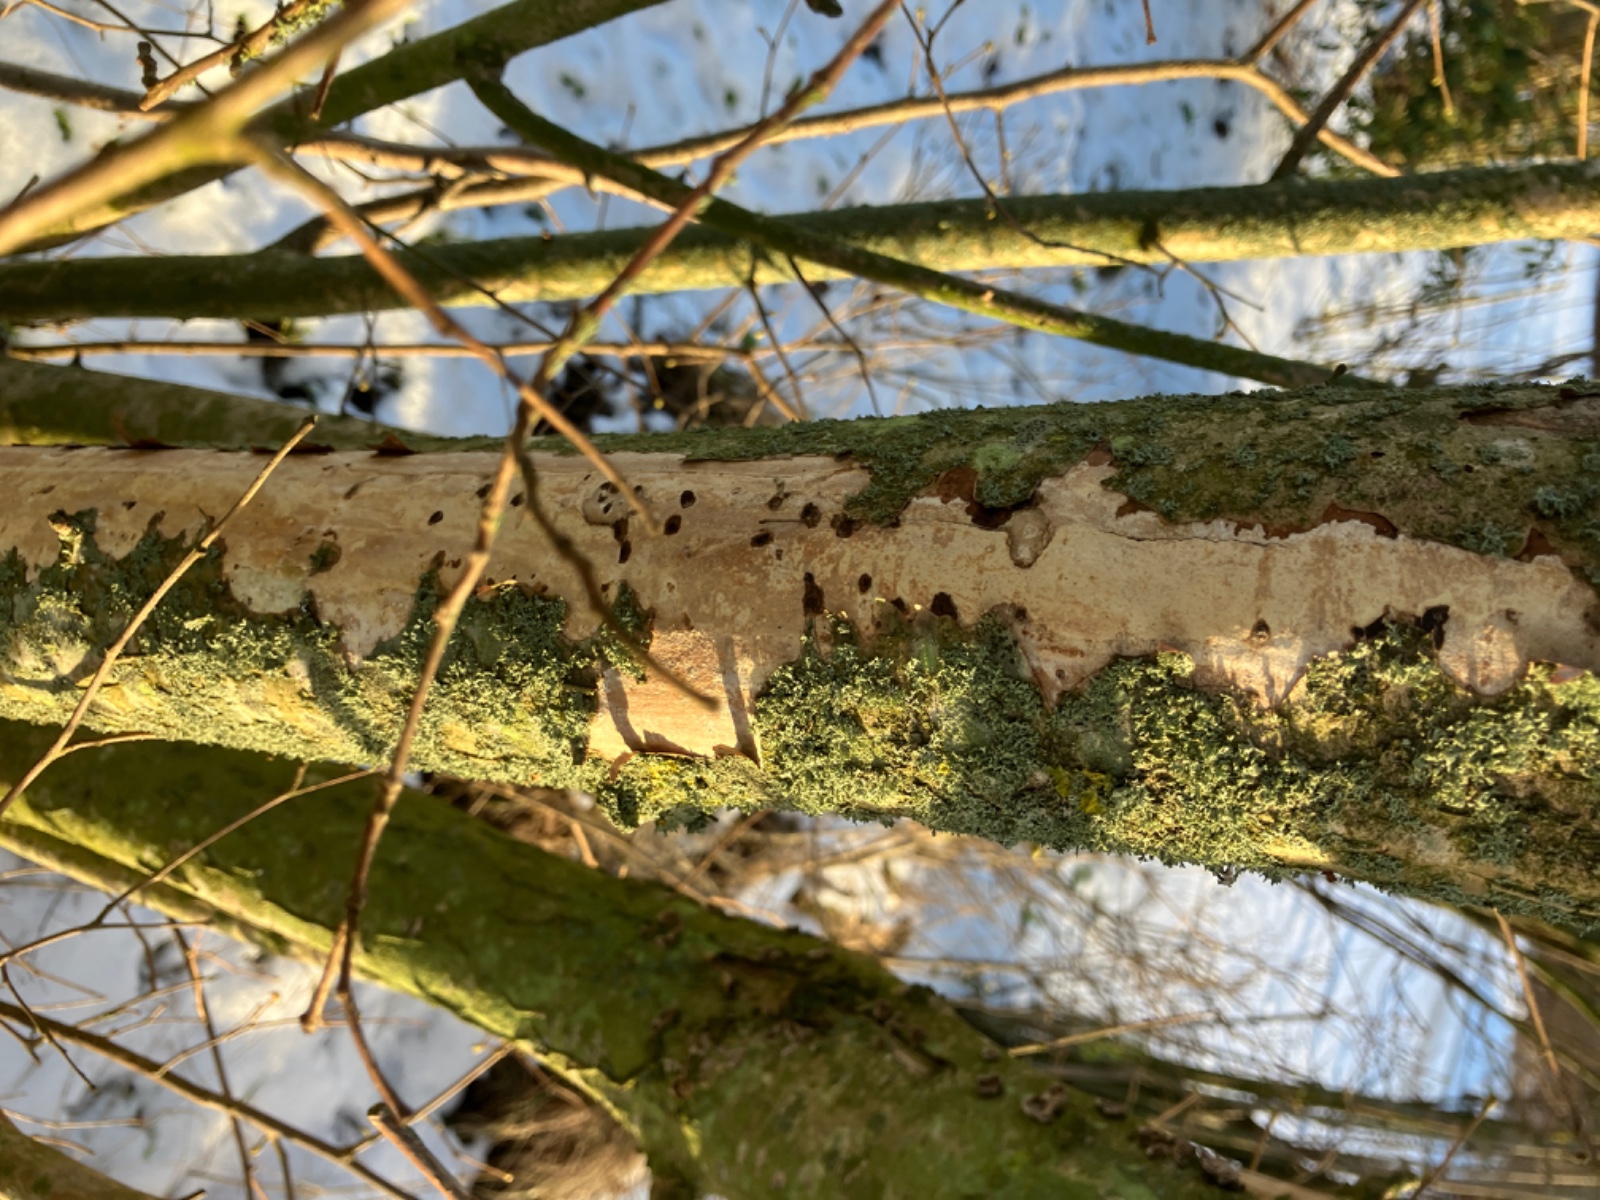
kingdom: Fungi
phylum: Basidiomycota
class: Agaricomycetes
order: Corticiales
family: Vuilleminiaceae
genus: Vuilleminia
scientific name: Vuilleminia coryli
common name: hassel-barksprænger
